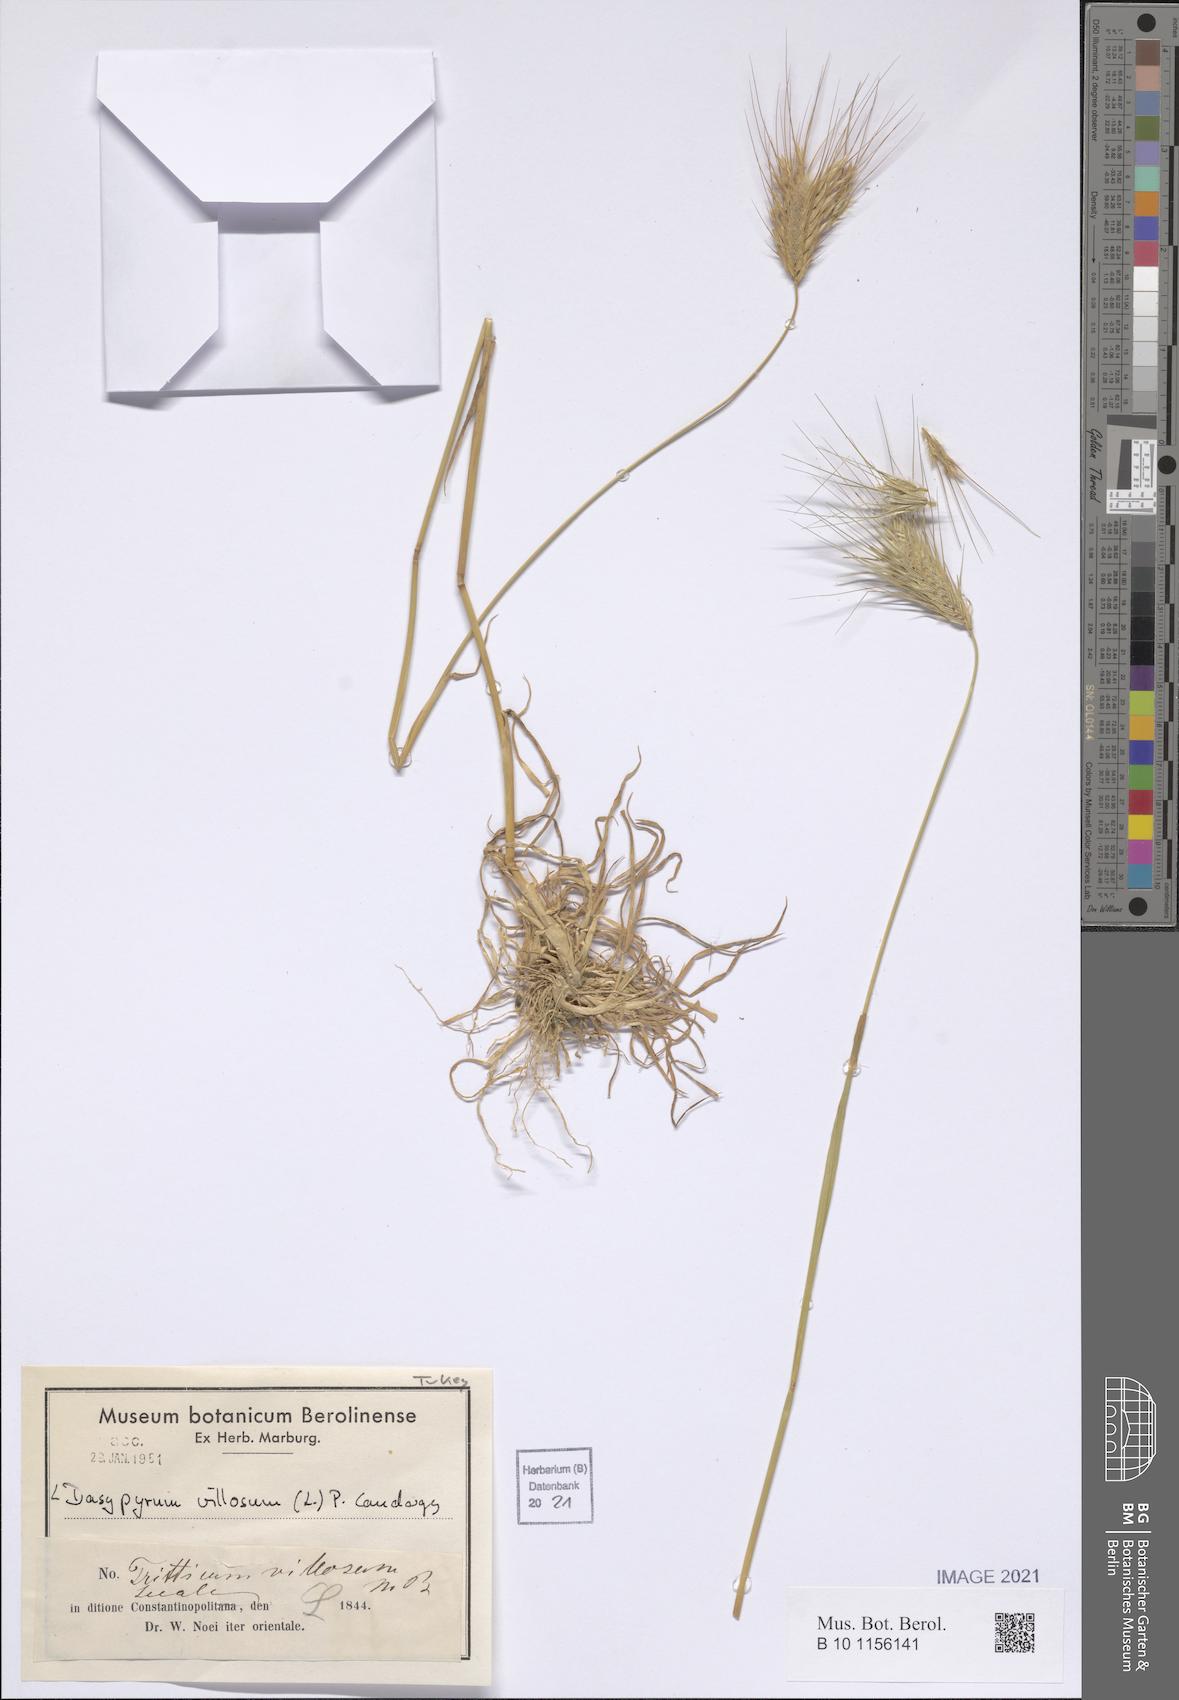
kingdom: Plantae
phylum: Tracheophyta
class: Liliopsida
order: Poales
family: Poaceae
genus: Dasypyrum
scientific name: Dasypyrum villosum
